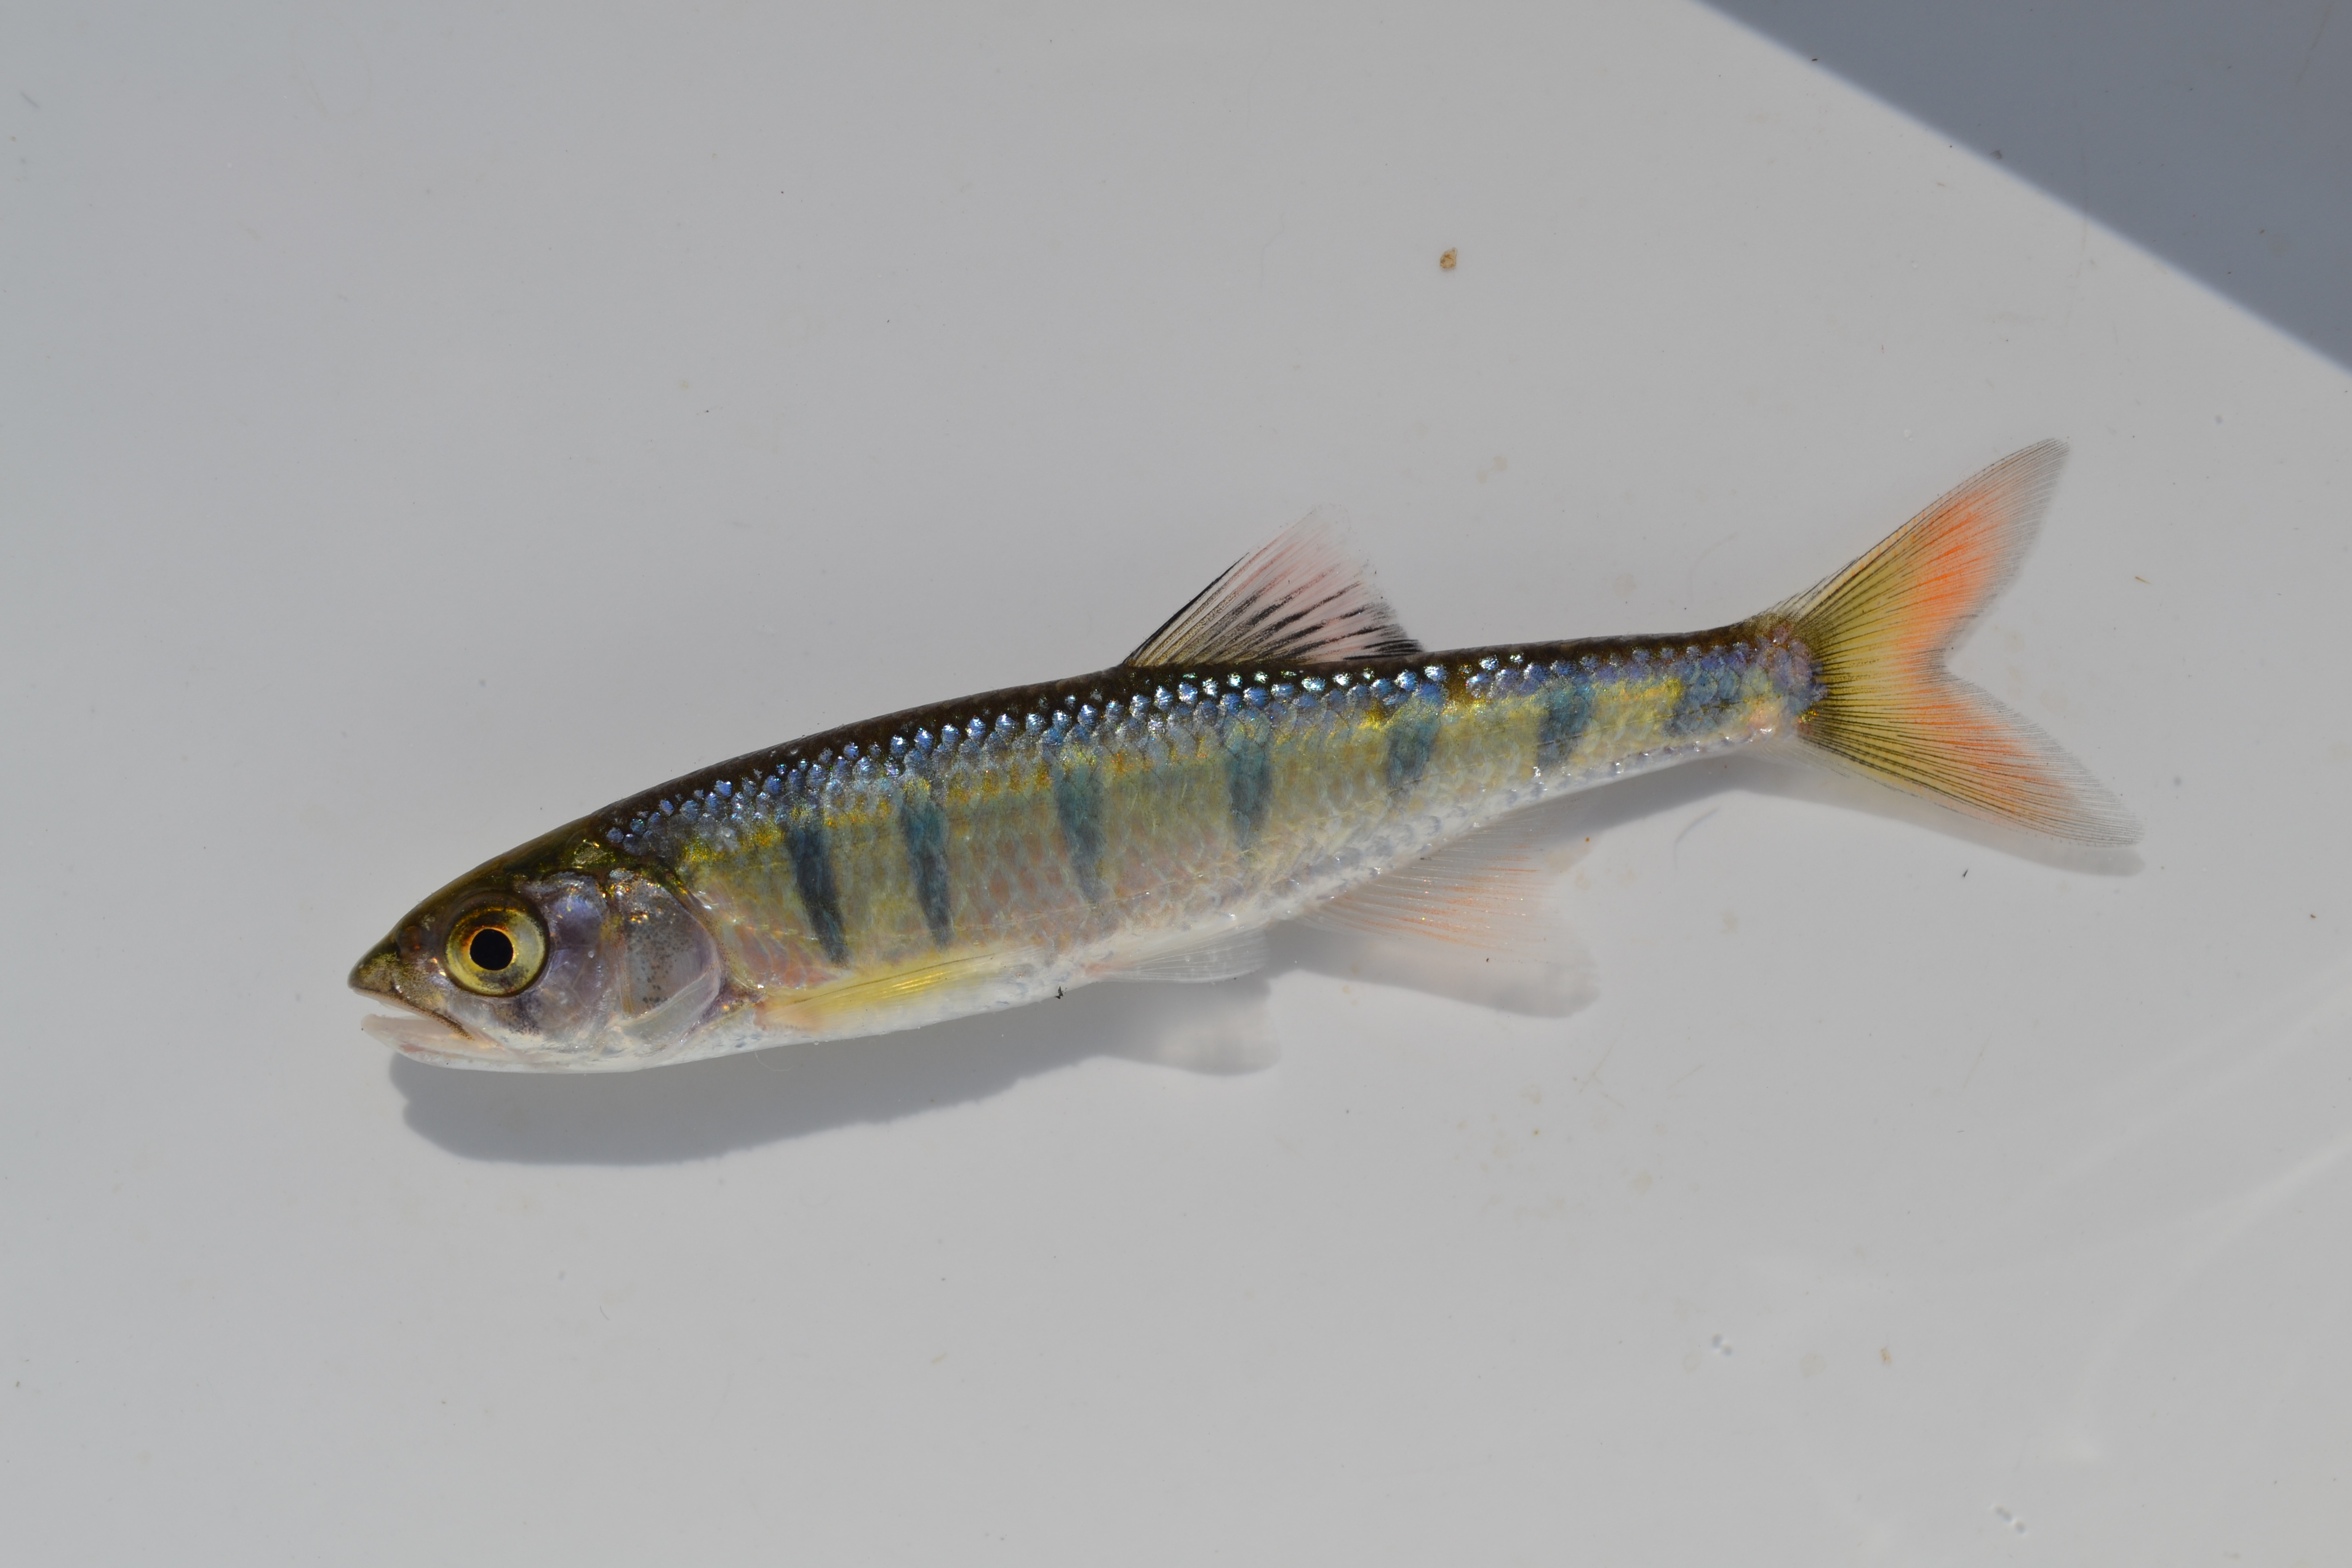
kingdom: Animalia
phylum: Chordata
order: Cypriniformes
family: Cyprinidae
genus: Opsaridium
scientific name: Opsaridium peringueyi
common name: Southern barred minnow
